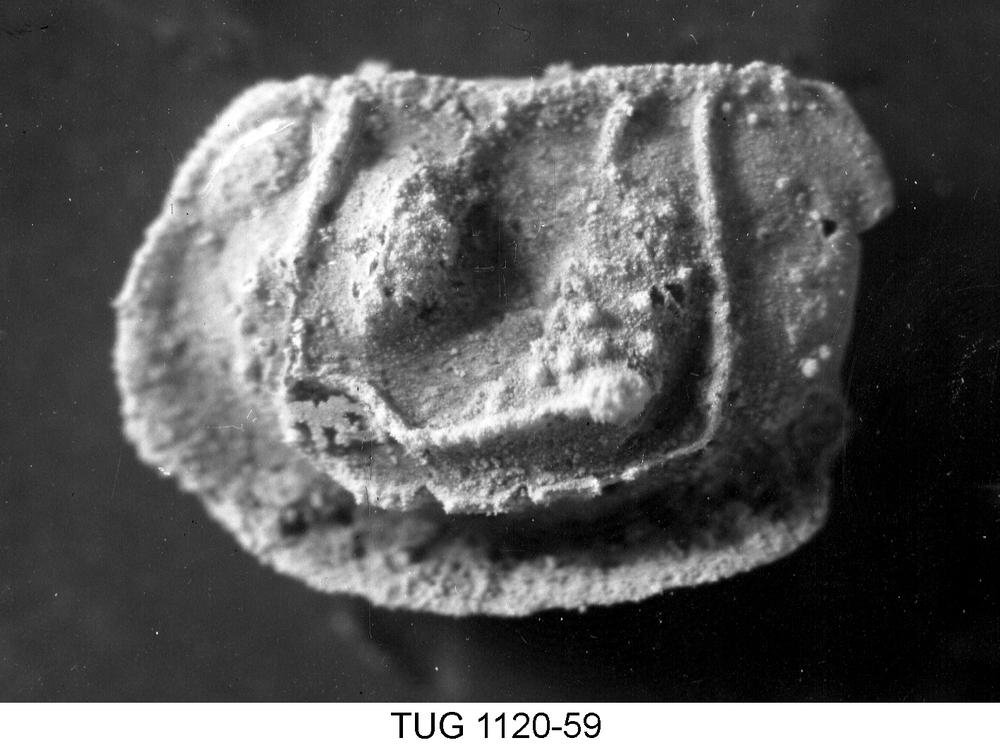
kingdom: Animalia
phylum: Arthropoda
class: Ostracoda
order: Palaeocopida
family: Ctenonotellidae
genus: Steusloffia
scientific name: Steusloffia
